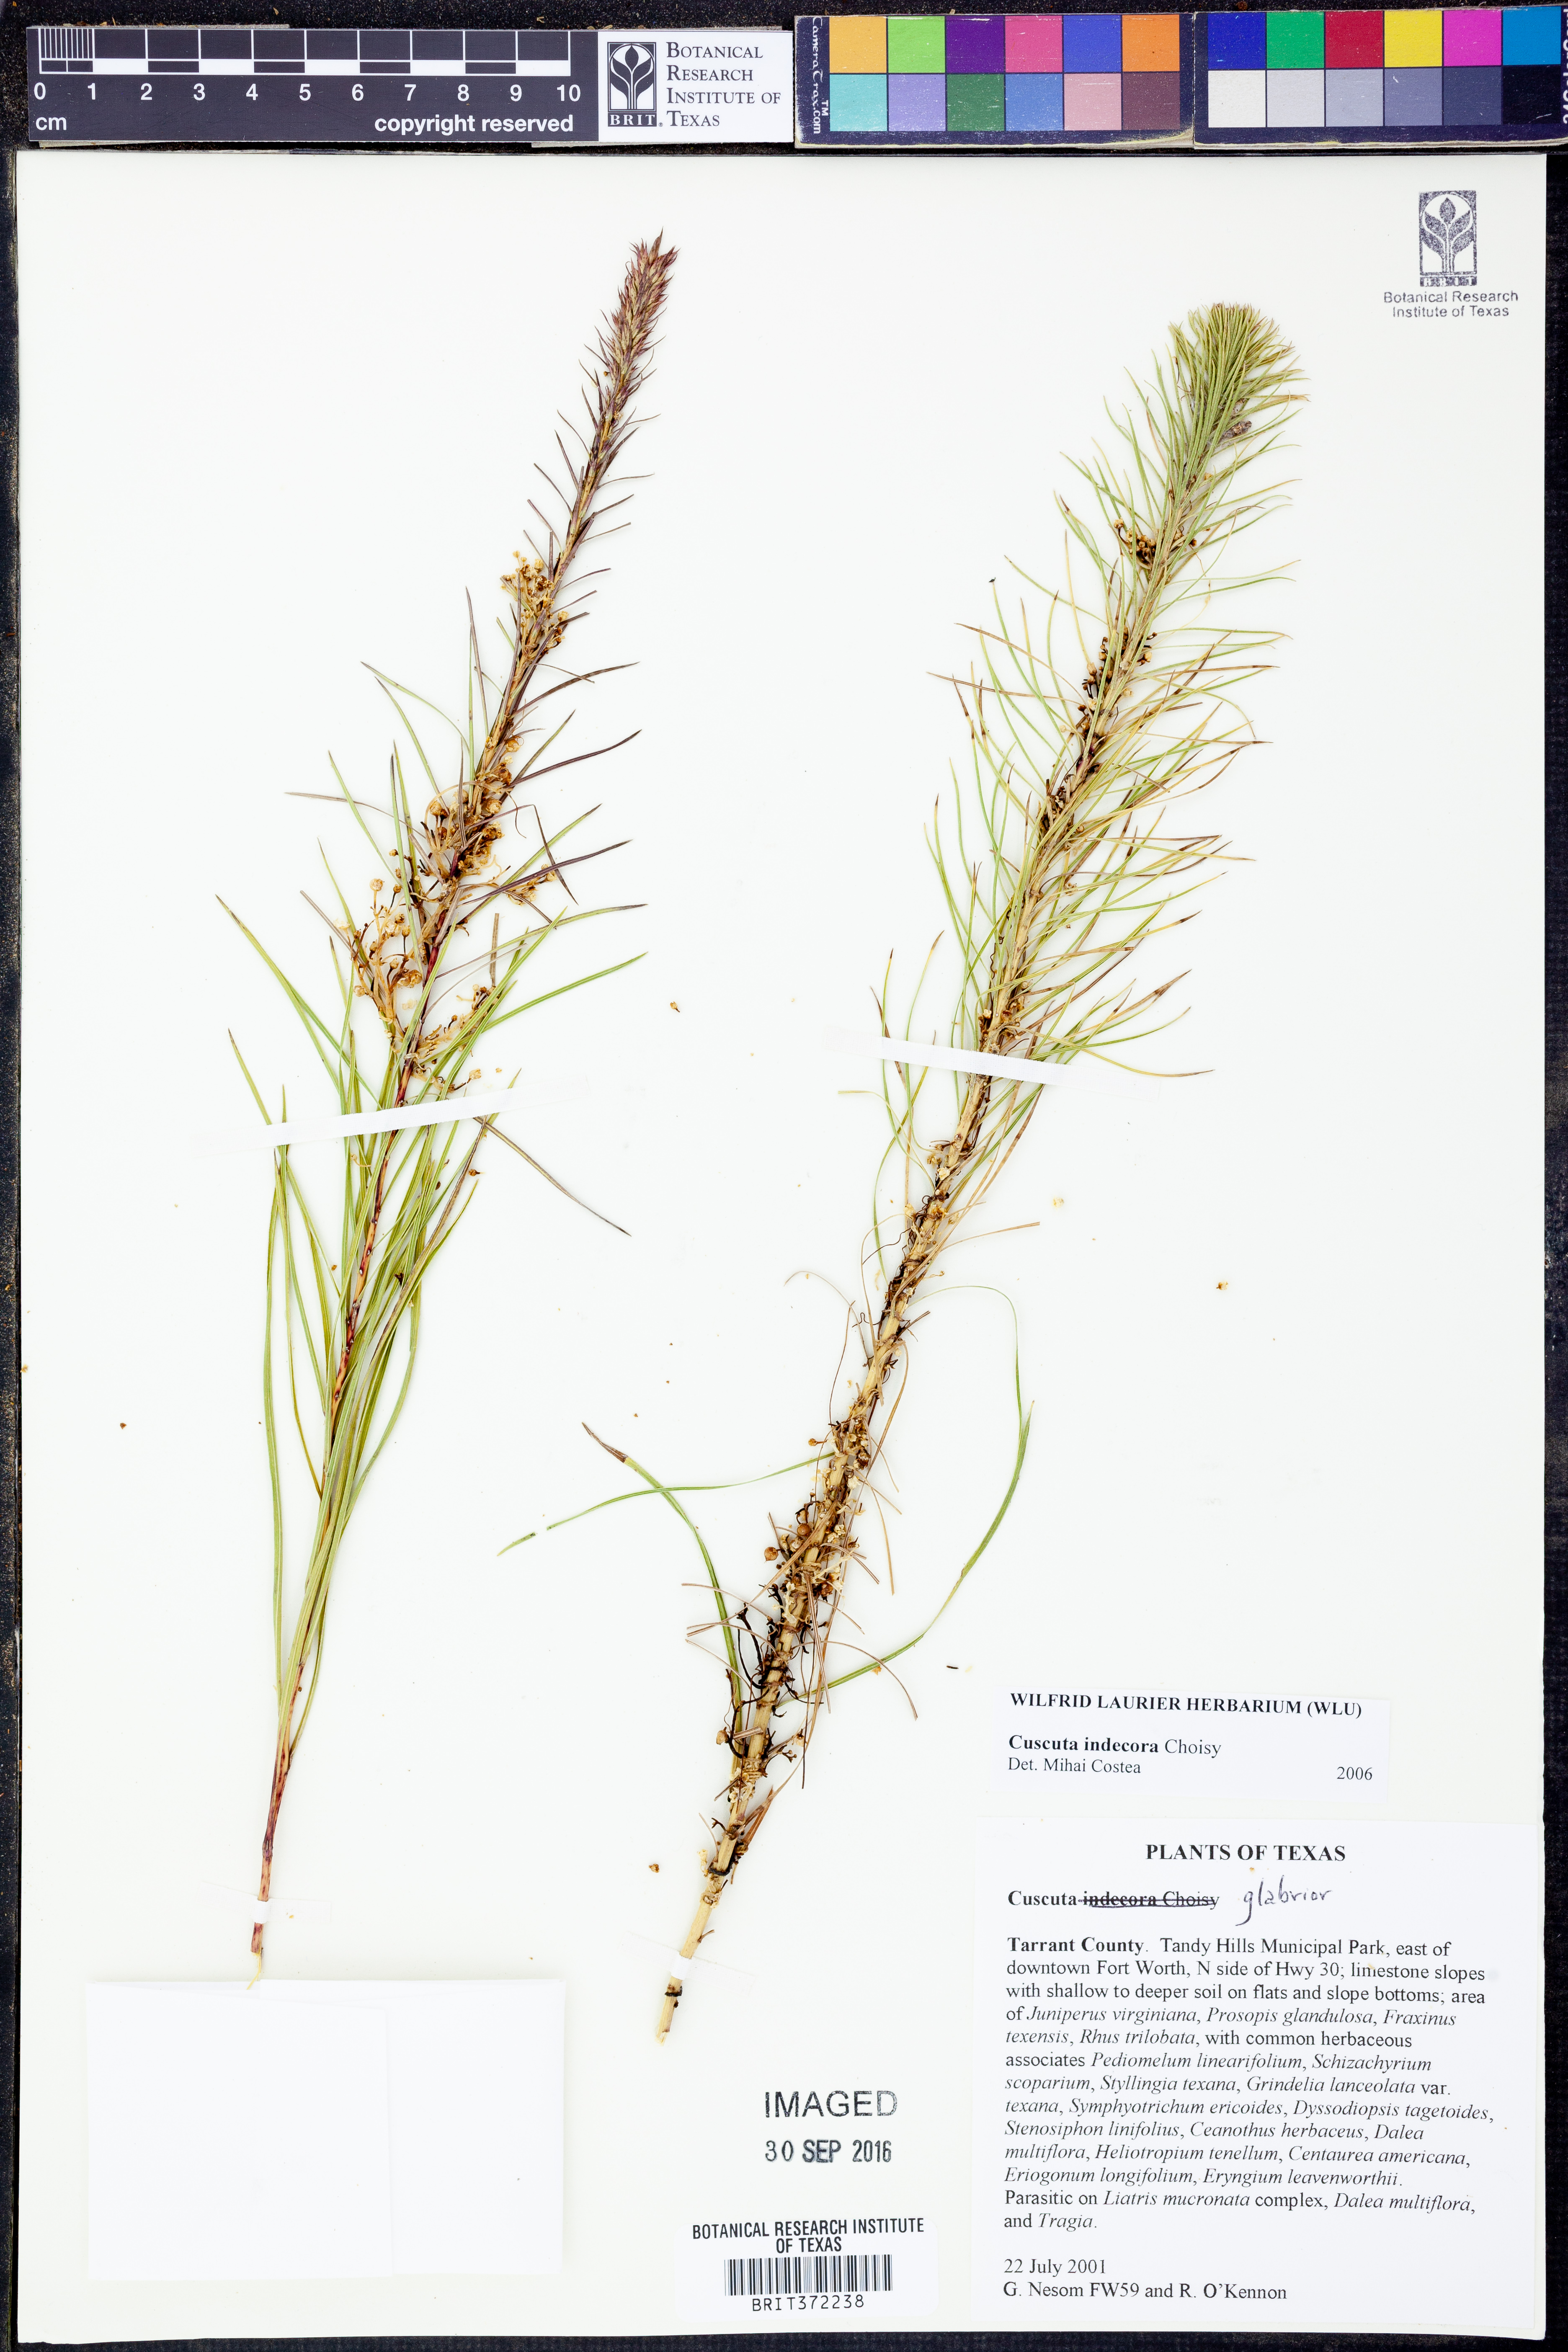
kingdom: Plantae
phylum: Tracheophyta
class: Magnoliopsida
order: Solanales
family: Convolvulaceae
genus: Cuscuta
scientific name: Cuscuta indecora
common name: Large-seed dodder
